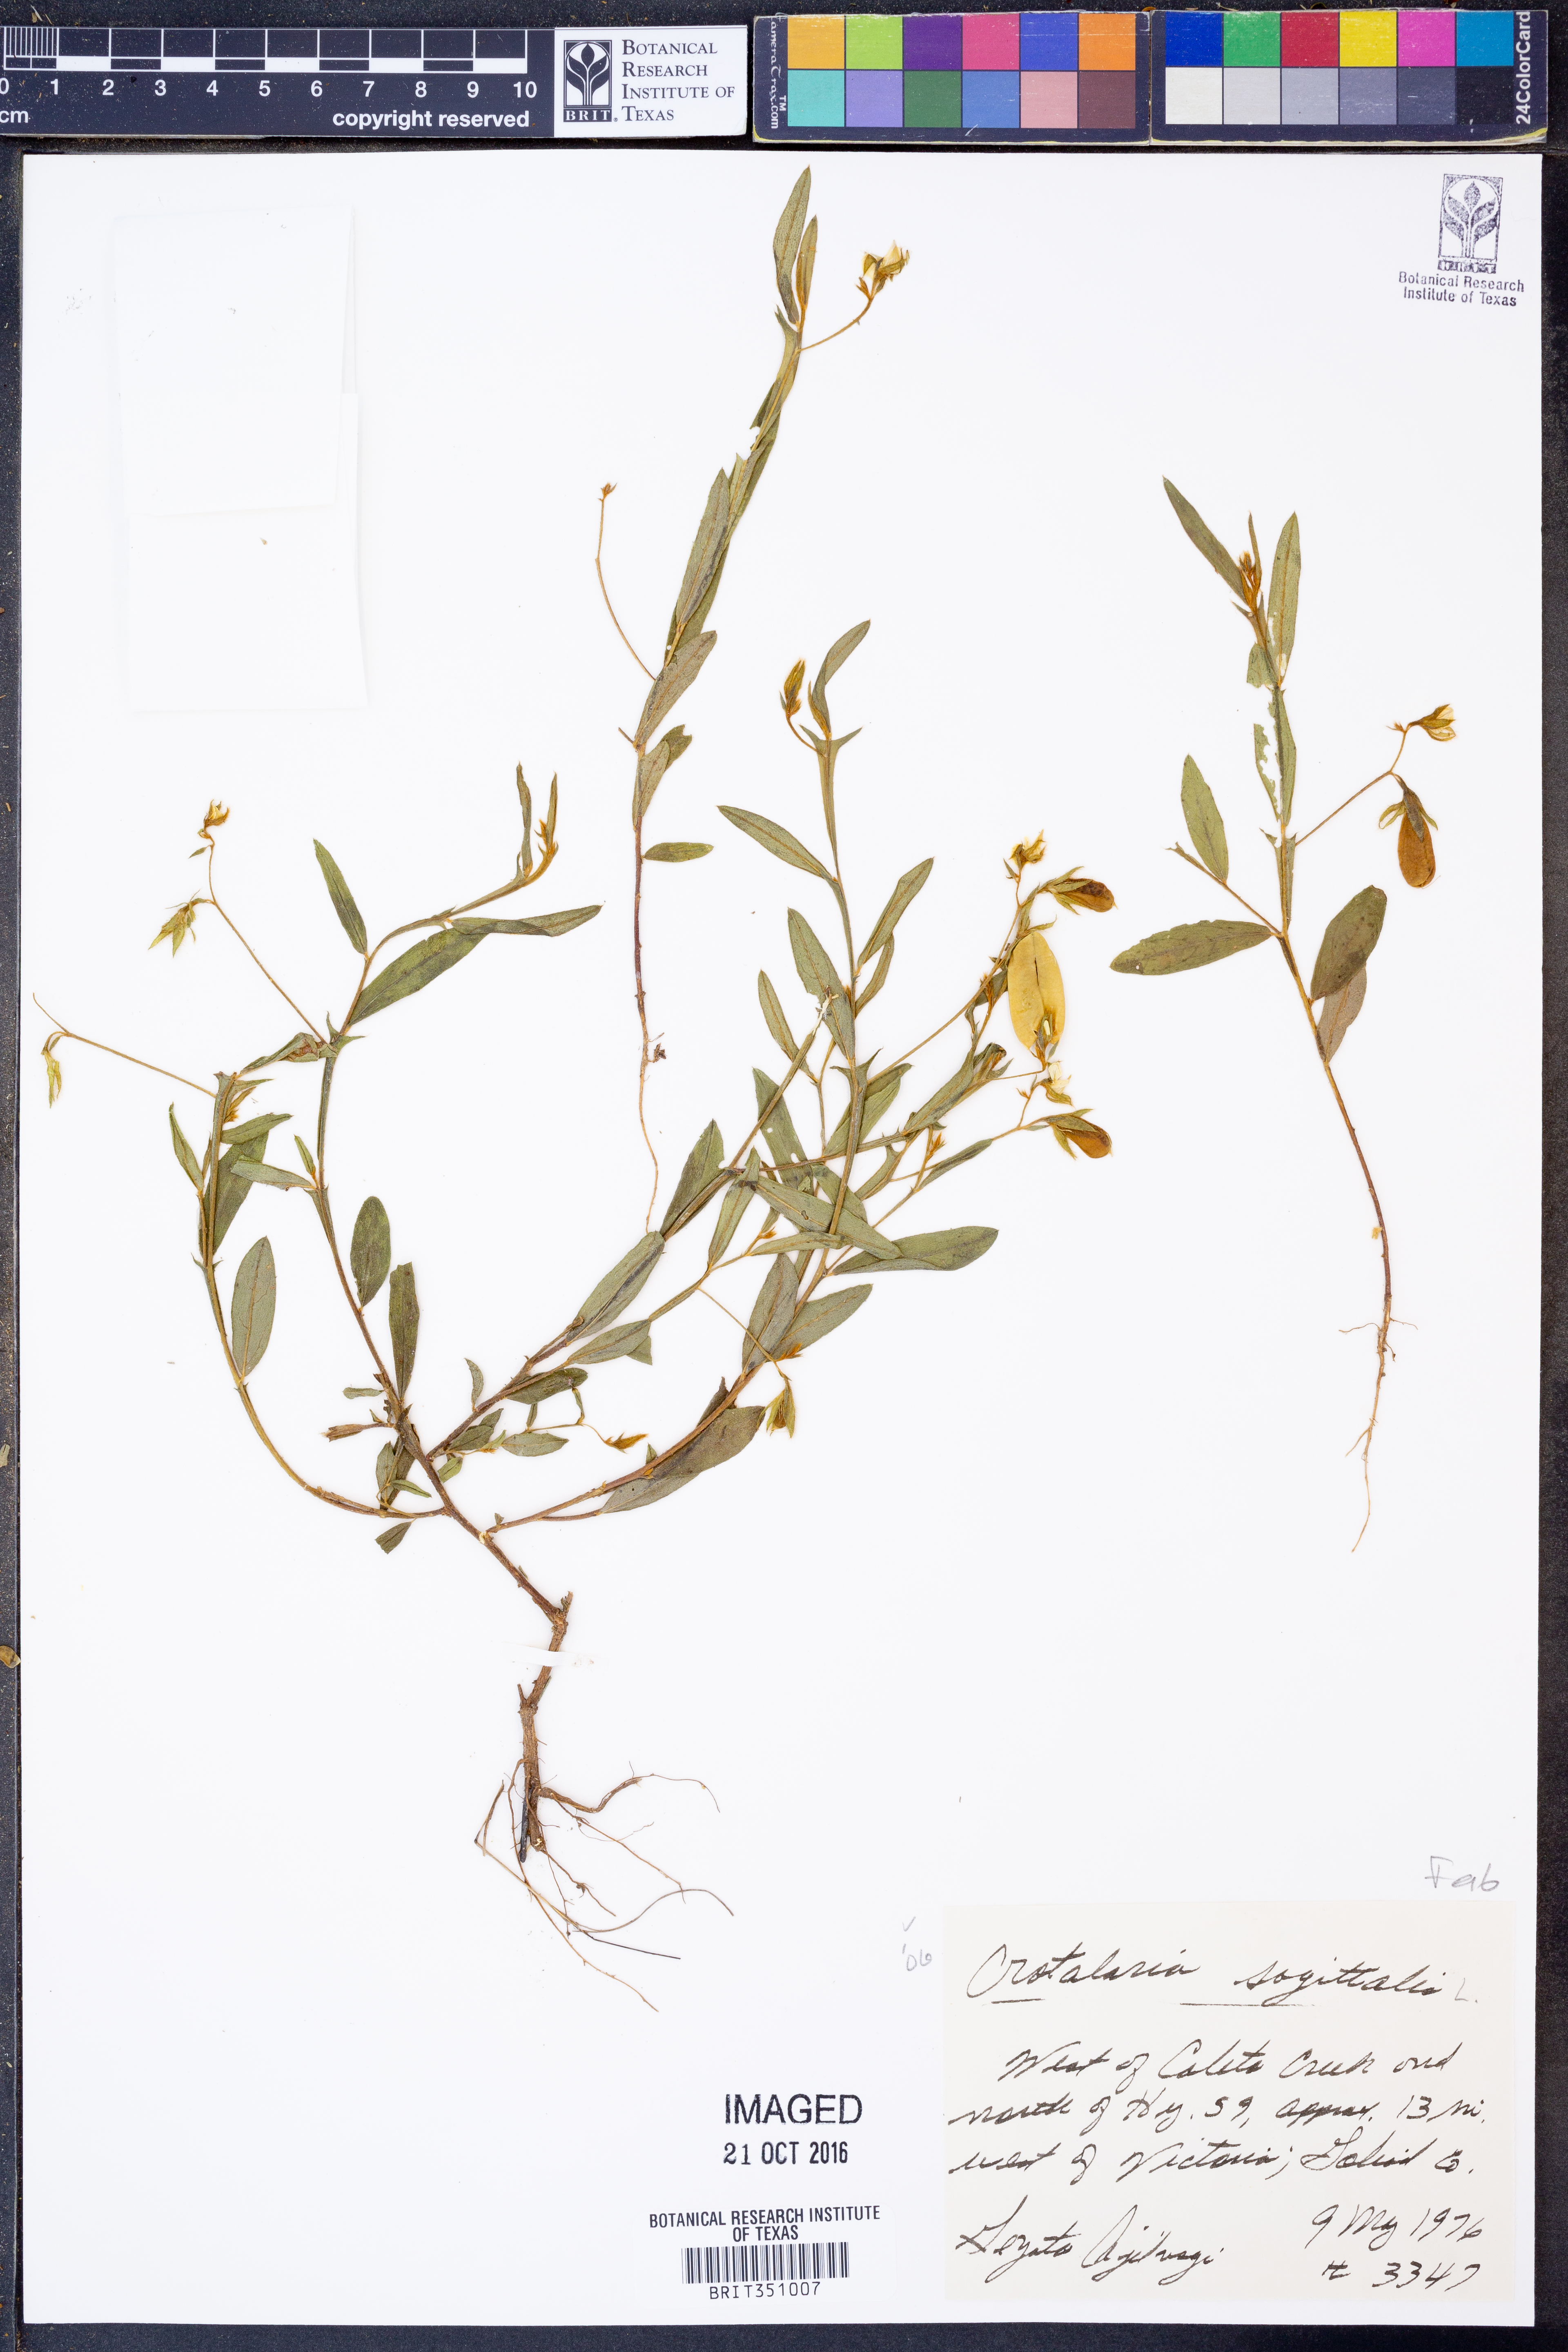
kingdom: Plantae
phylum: Tracheophyta
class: Magnoliopsida
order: Fabales
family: Fabaceae
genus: Crotalaria
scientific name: Crotalaria sagittalis
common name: Arrowhead rattlebox
